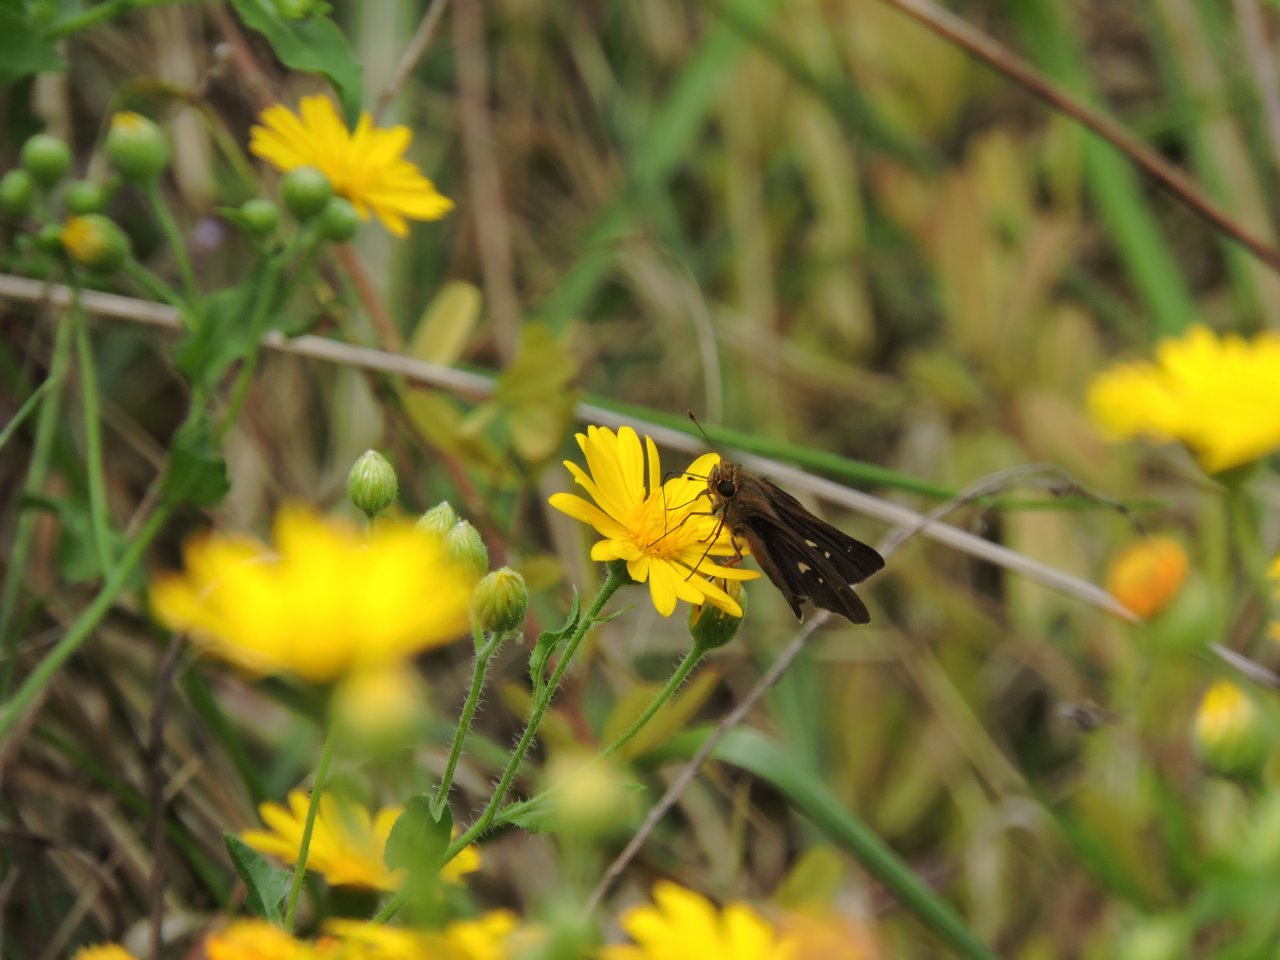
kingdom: Animalia
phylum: Arthropoda
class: Insecta
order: Lepidoptera
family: Hesperiidae
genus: Panoquina
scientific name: Panoquina ocola
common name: Ocola Skipper
